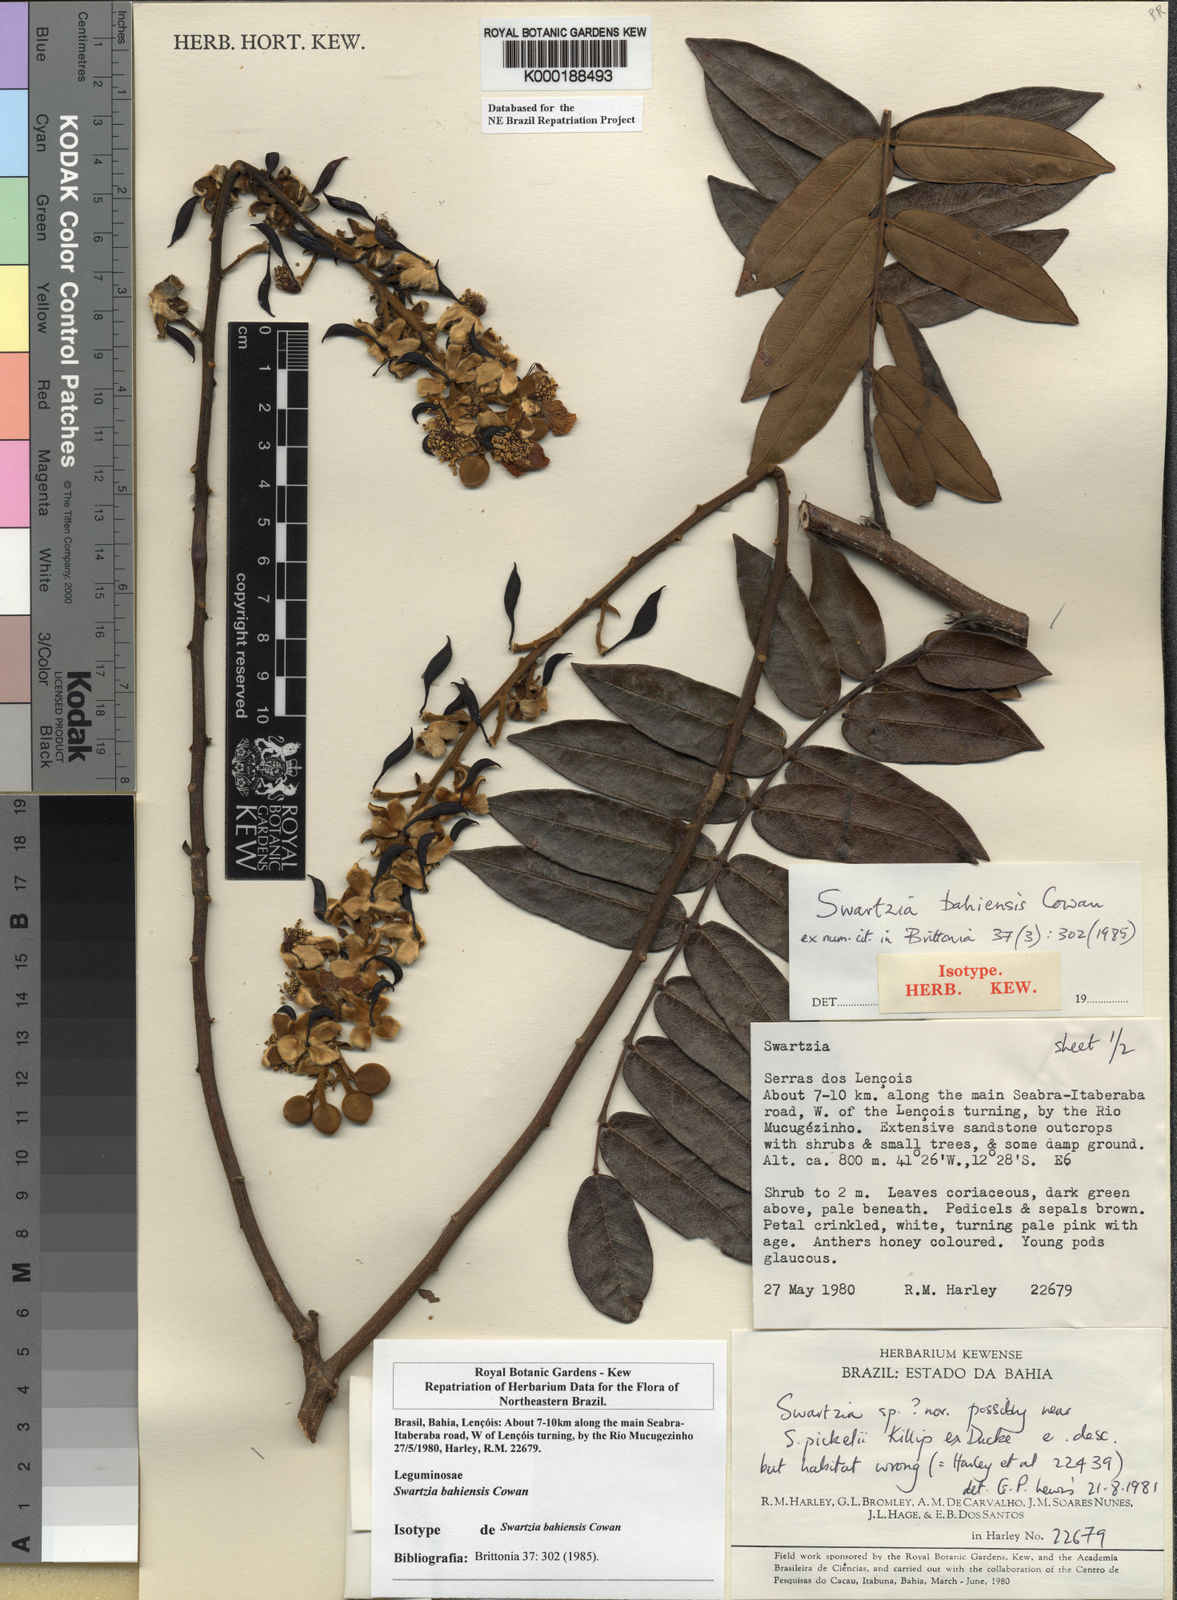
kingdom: Plantae
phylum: Tracheophyta
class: Magnoliopsida
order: Fabales
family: Fabaceae
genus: Swartzia
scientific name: Swartzia bahiensis
